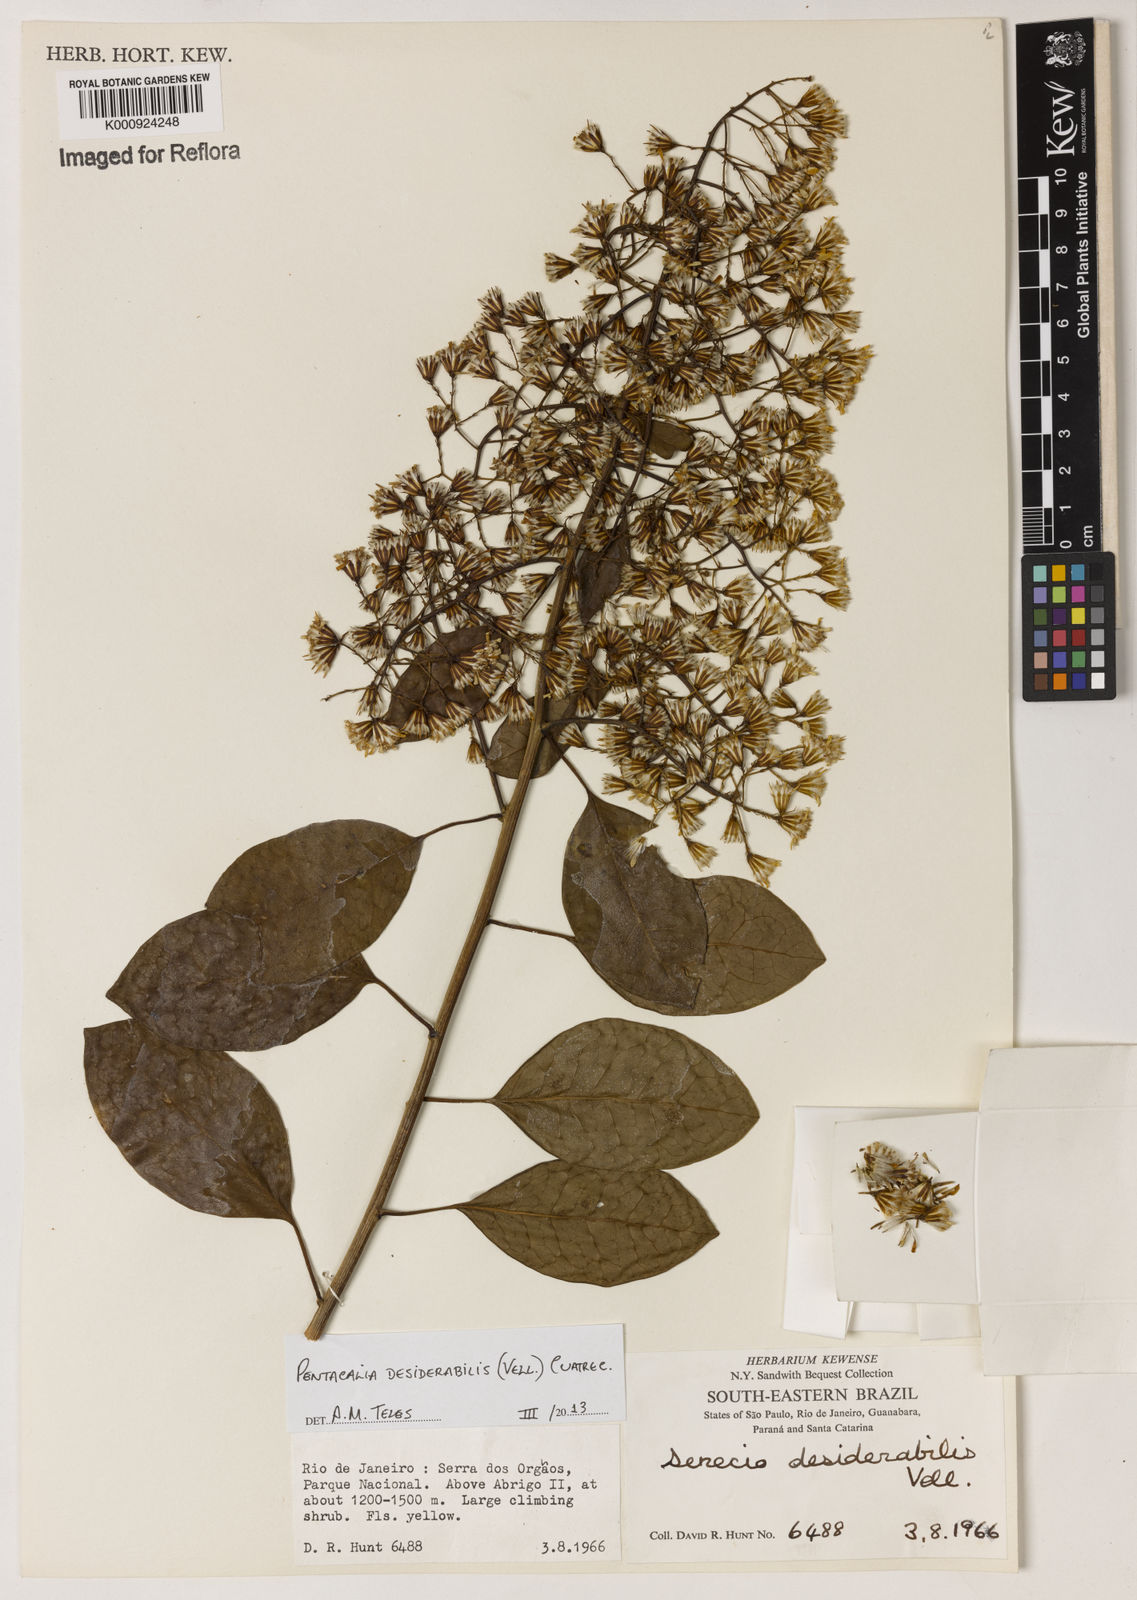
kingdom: Plantae
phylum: Tracheophyta
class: Magnoliopsida
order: Asterales
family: Asteraceae
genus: Pentacalia
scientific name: Pentacalia desiderabilis
